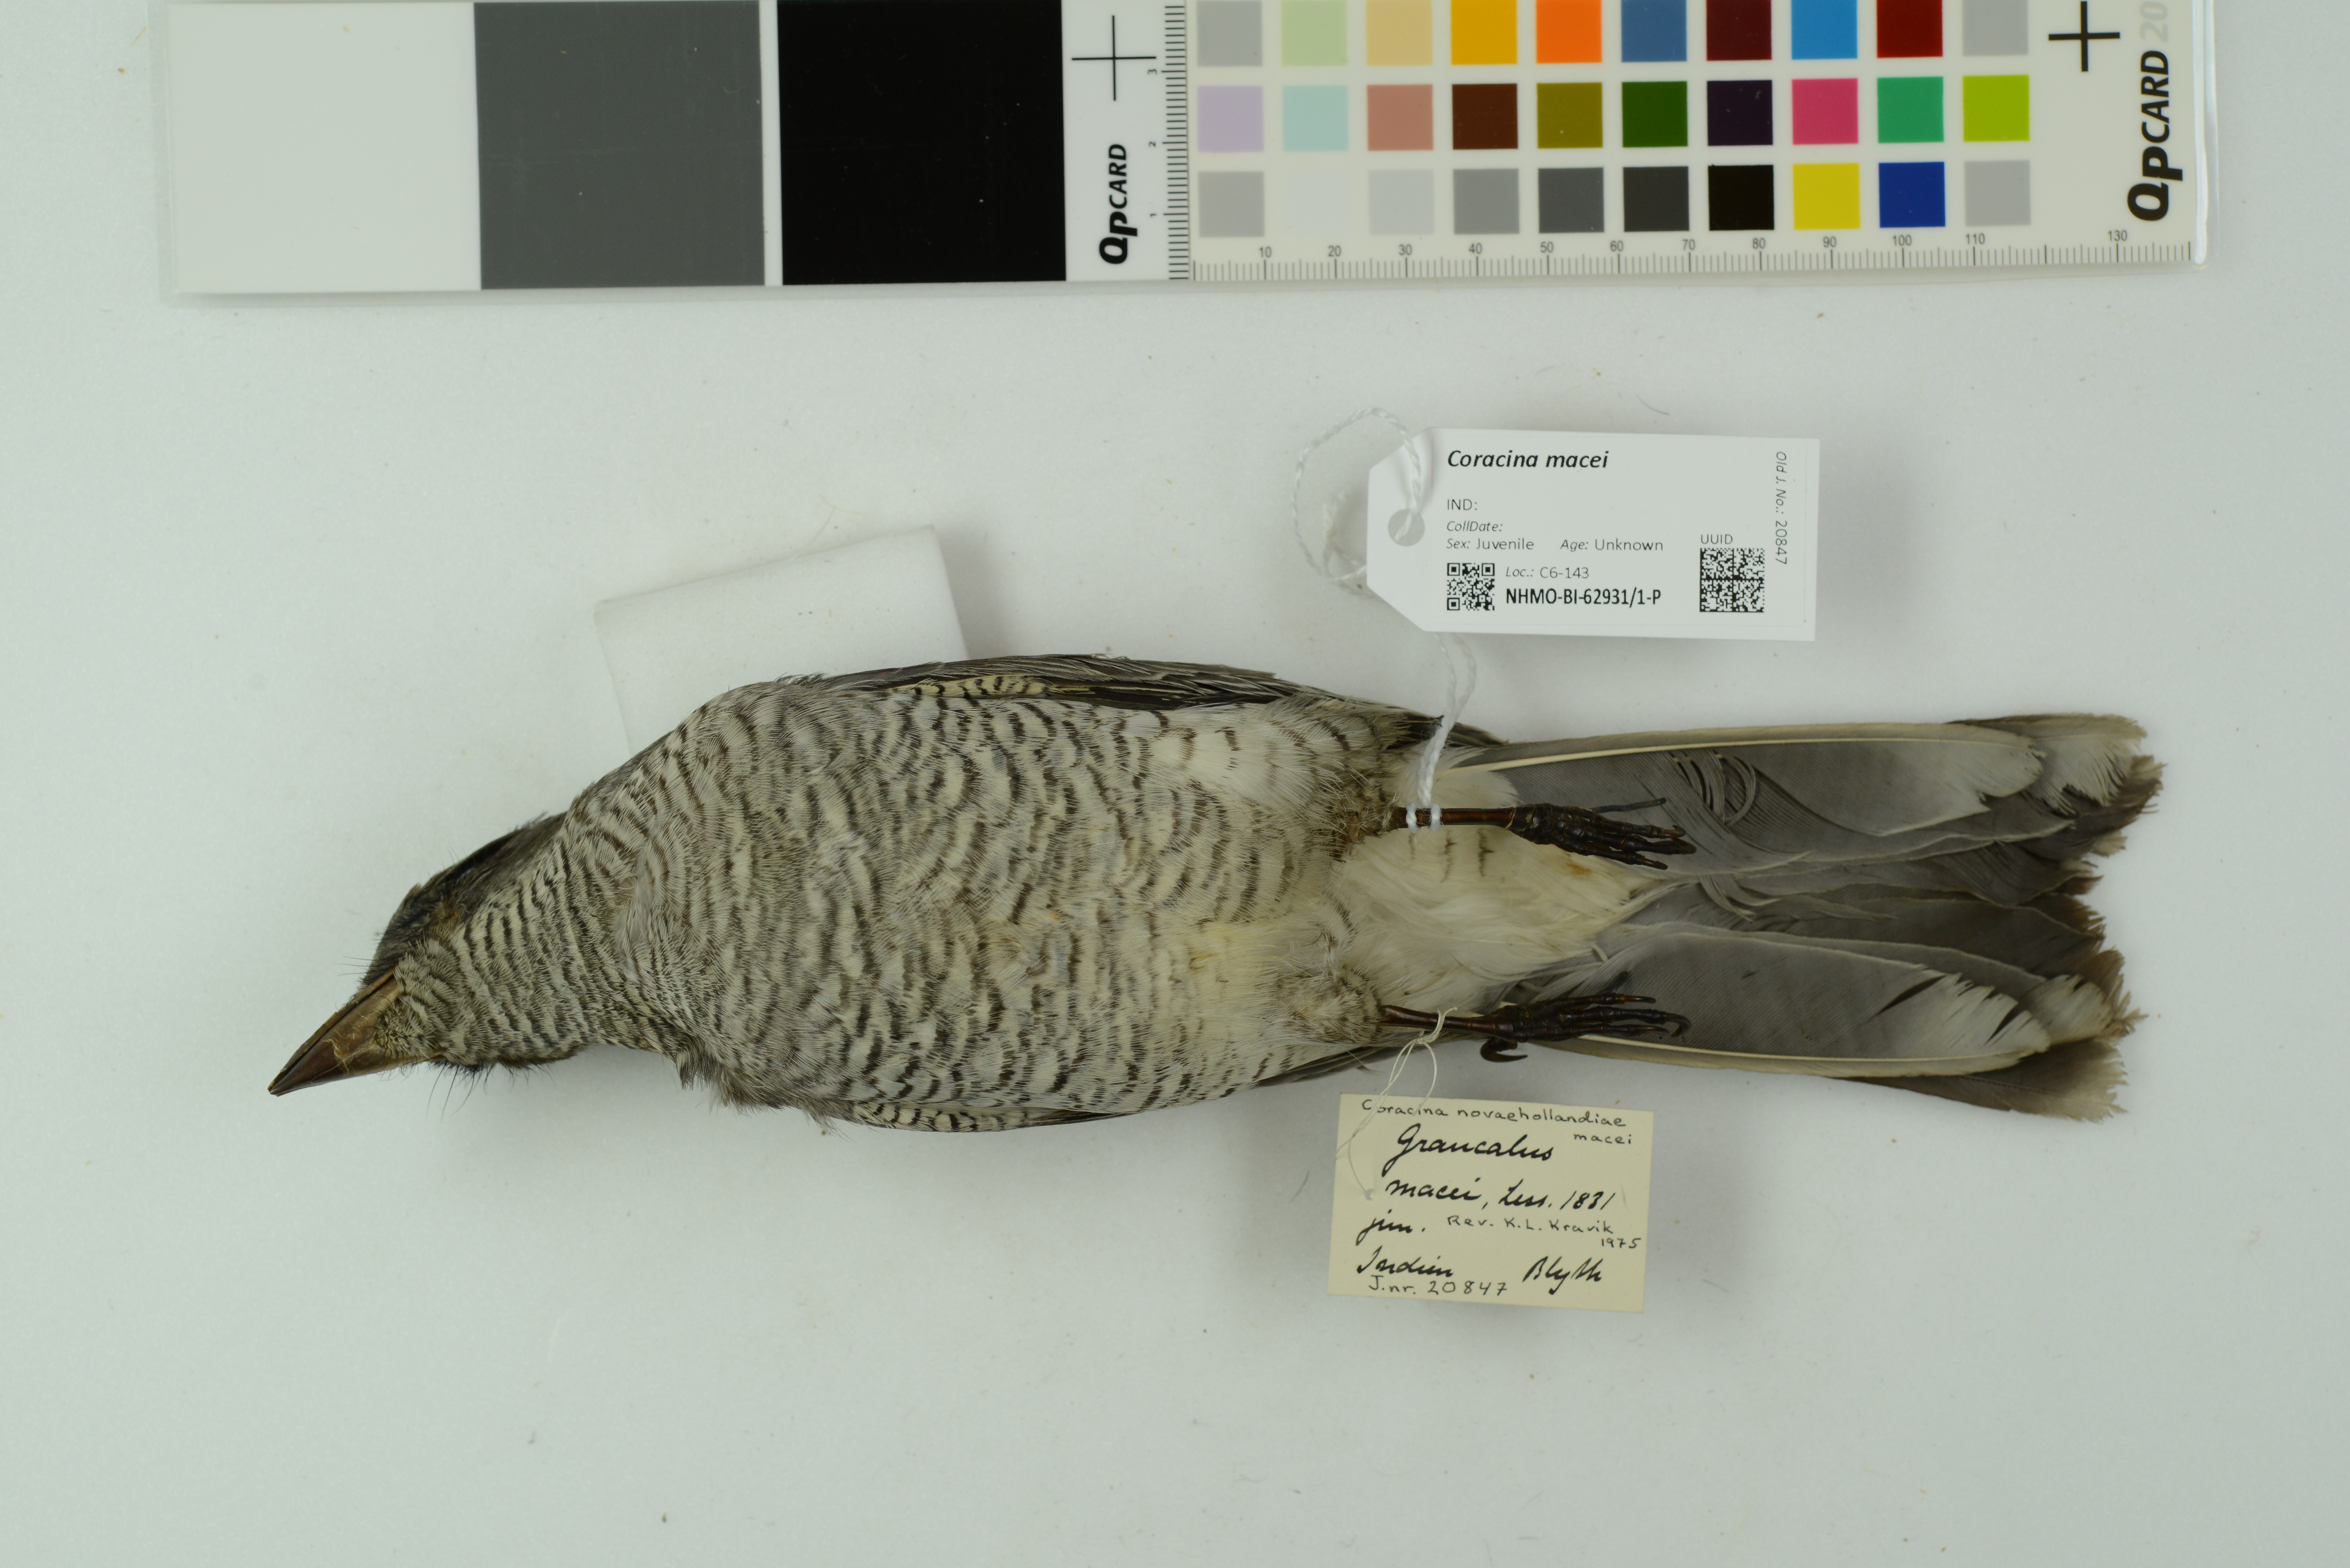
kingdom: Animalia
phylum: Chordata
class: Aves
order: Passeriformes
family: Campephagidae
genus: Coracina
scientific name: Coracina macei
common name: Large cuckooshrike
